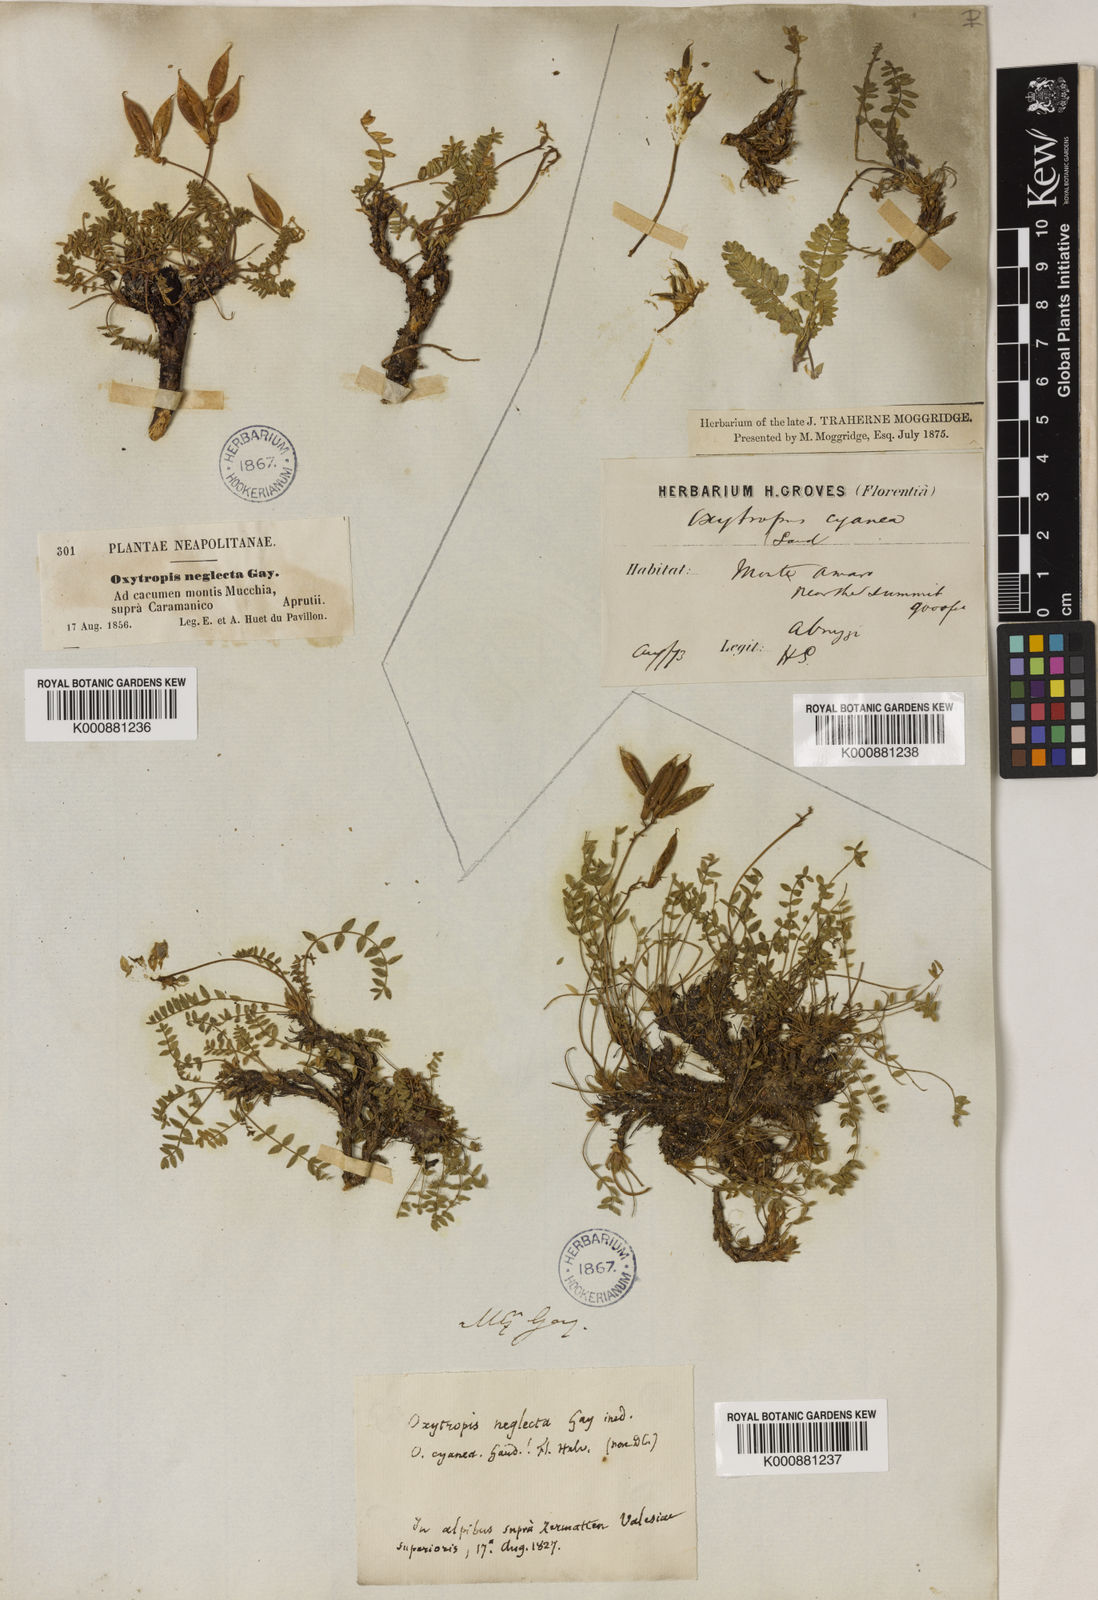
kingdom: Plantae
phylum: Tracheophyta
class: Magnoliopsida
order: Fabales
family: Fabaceae
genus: Oxytropis
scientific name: Oxytropis neglecta
